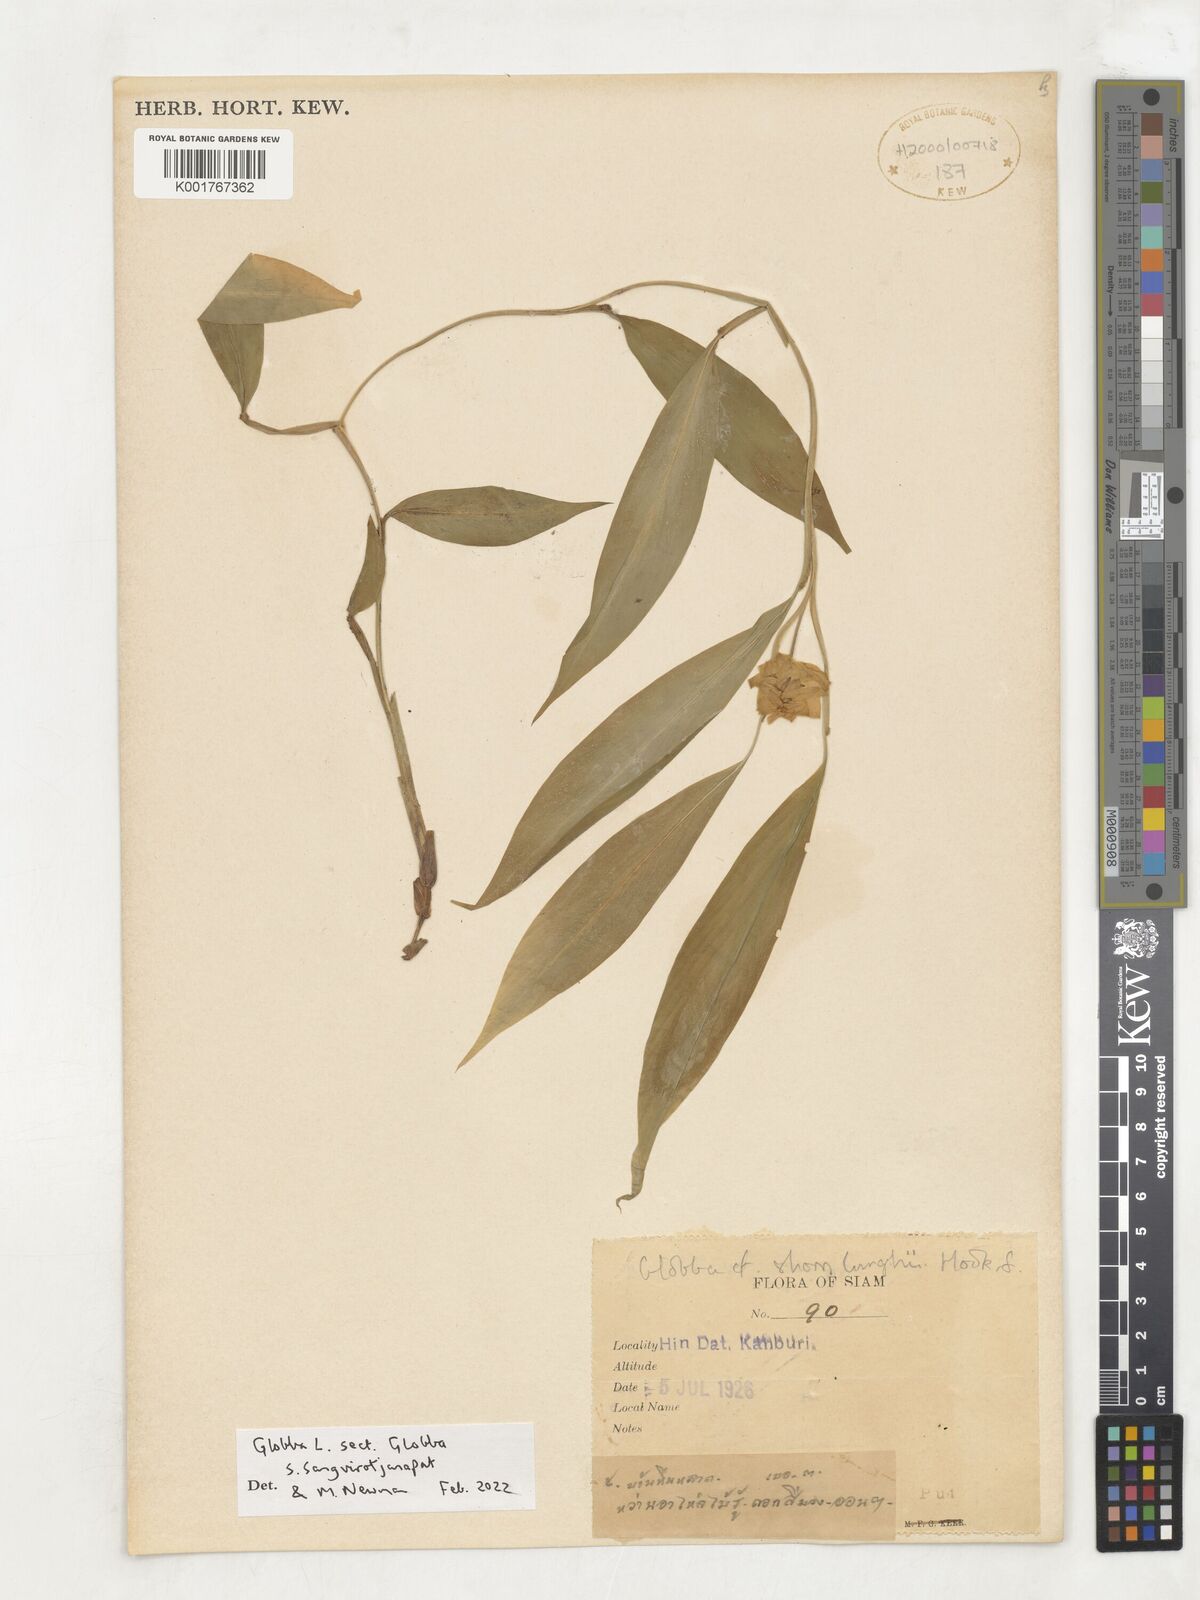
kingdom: Plantae
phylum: Tracheophyta
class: Liliopsida
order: Zingiberales
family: Zingiberaceae
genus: Globba
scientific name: Globba
